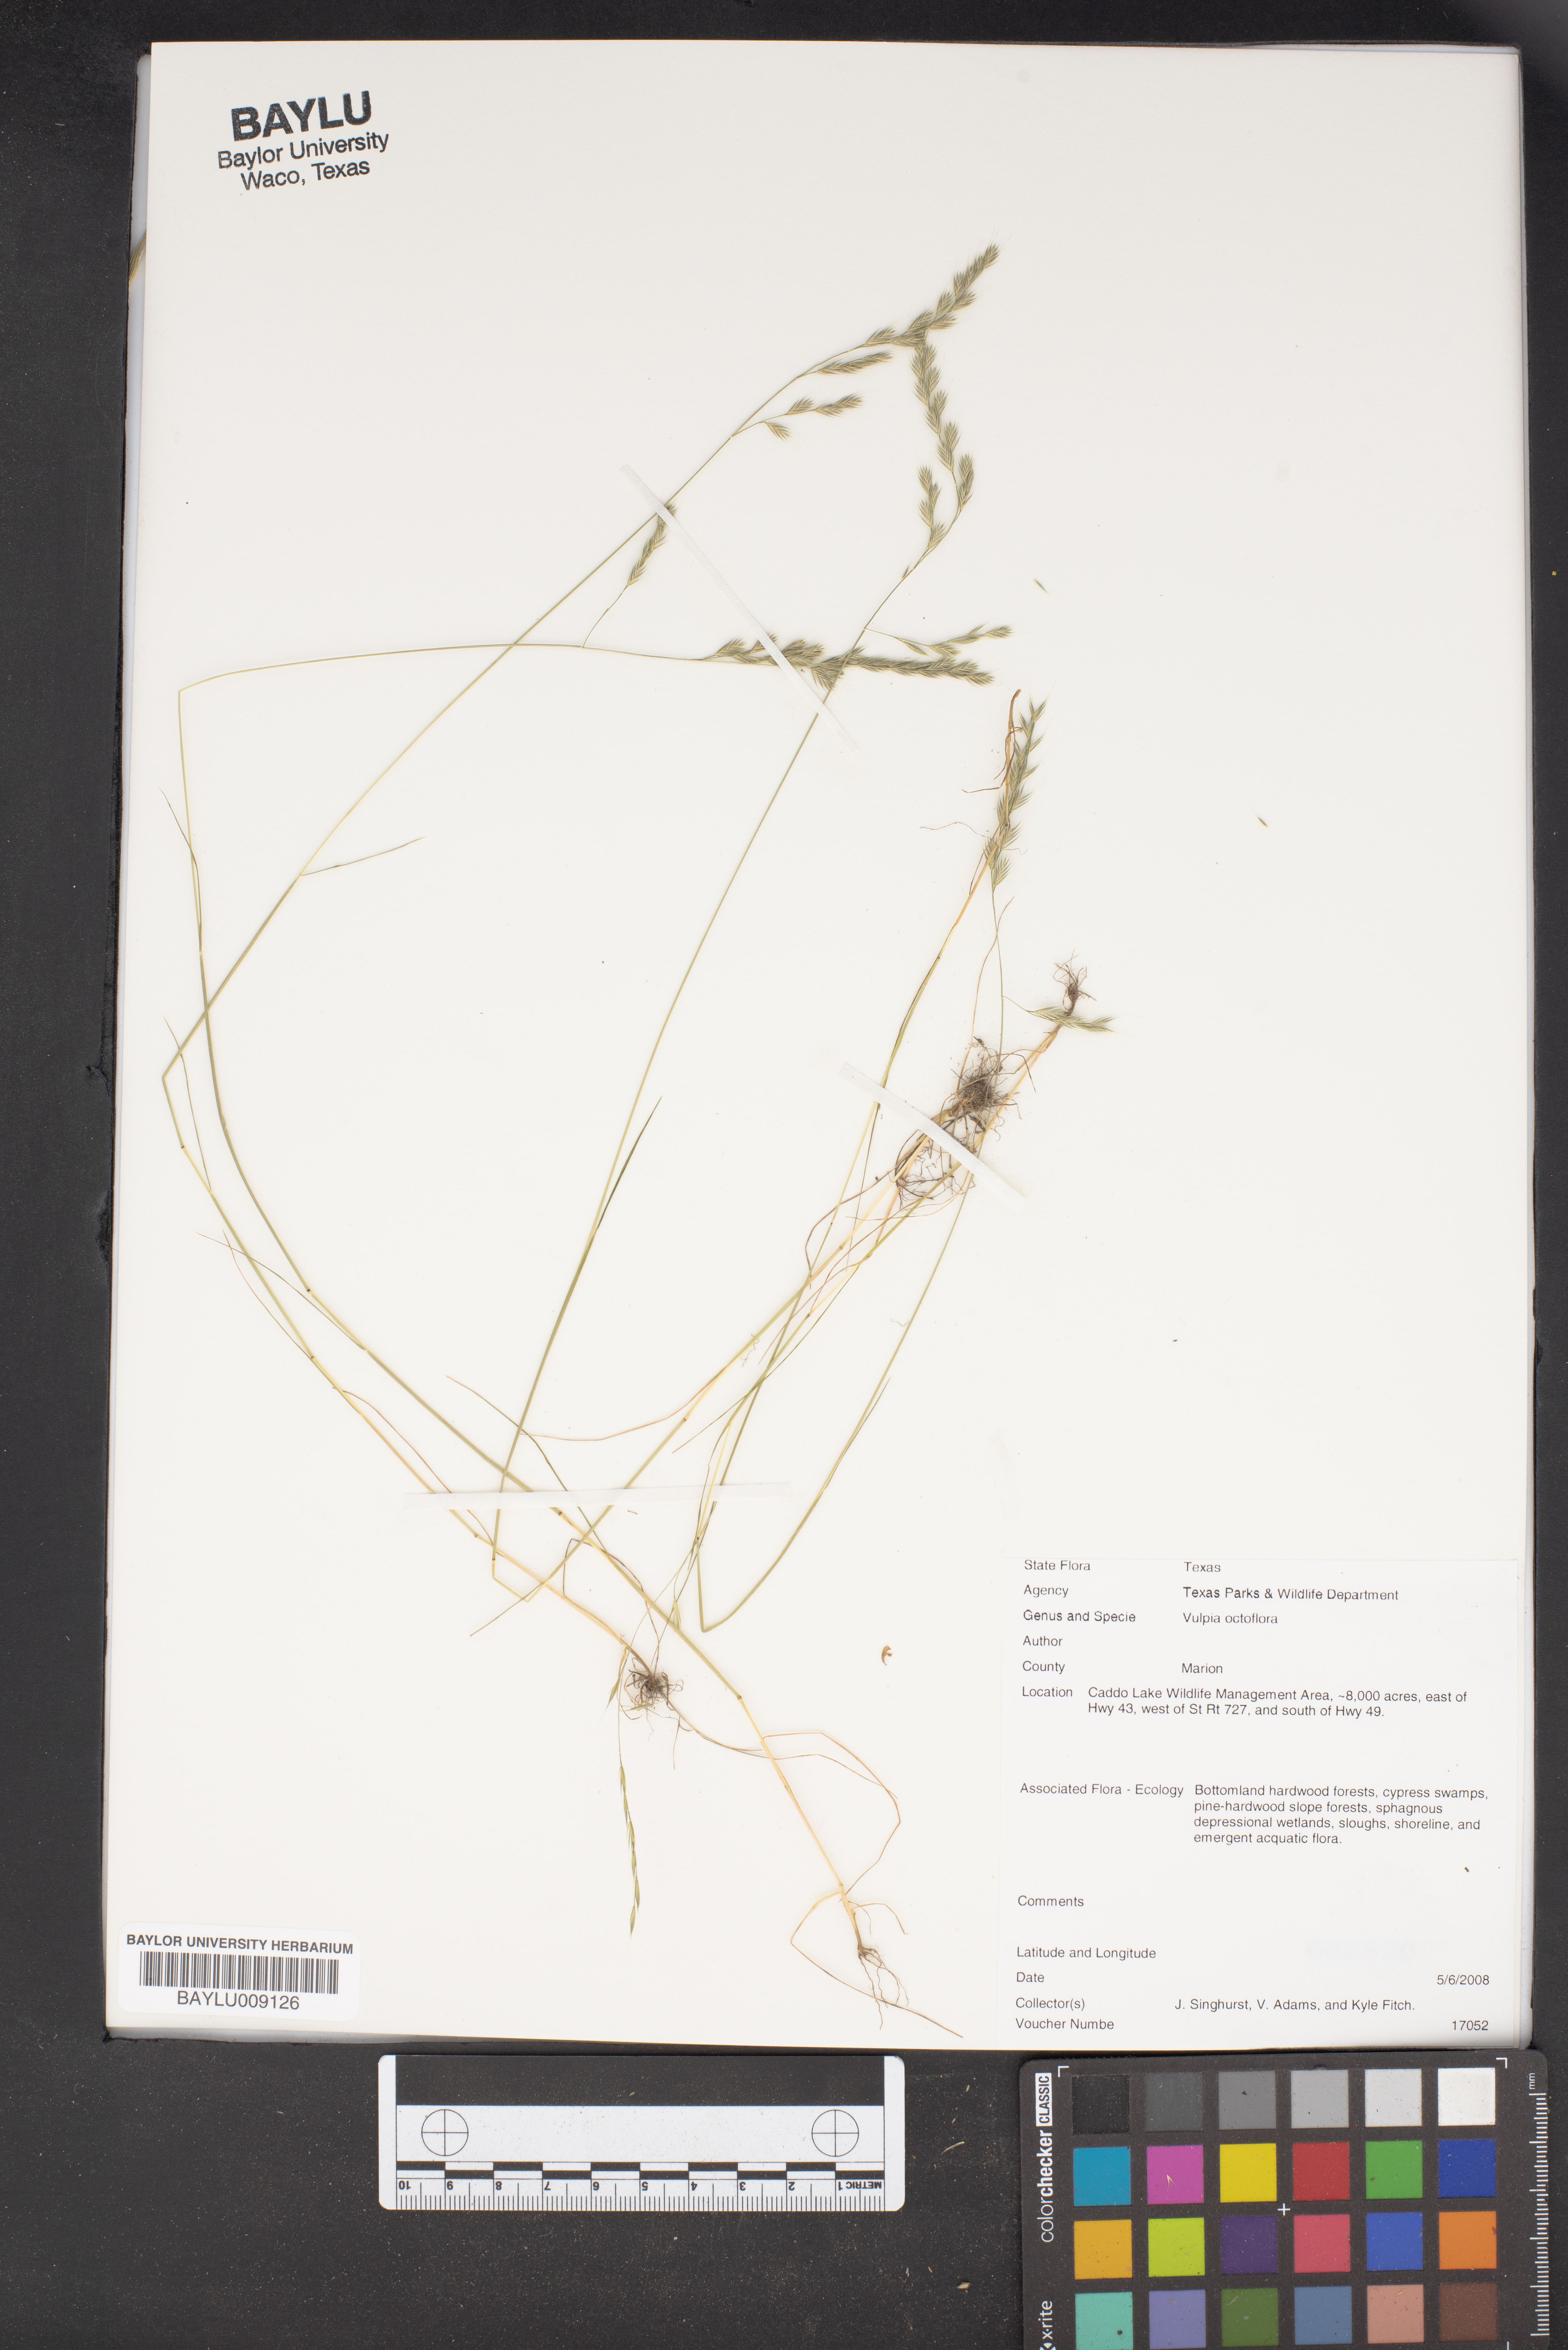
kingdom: Plantae
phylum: Tracheophyta
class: Liliopsida
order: Poales
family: Poaceae
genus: Festuca
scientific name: Festuca octoflora
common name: Sixweeks grass
